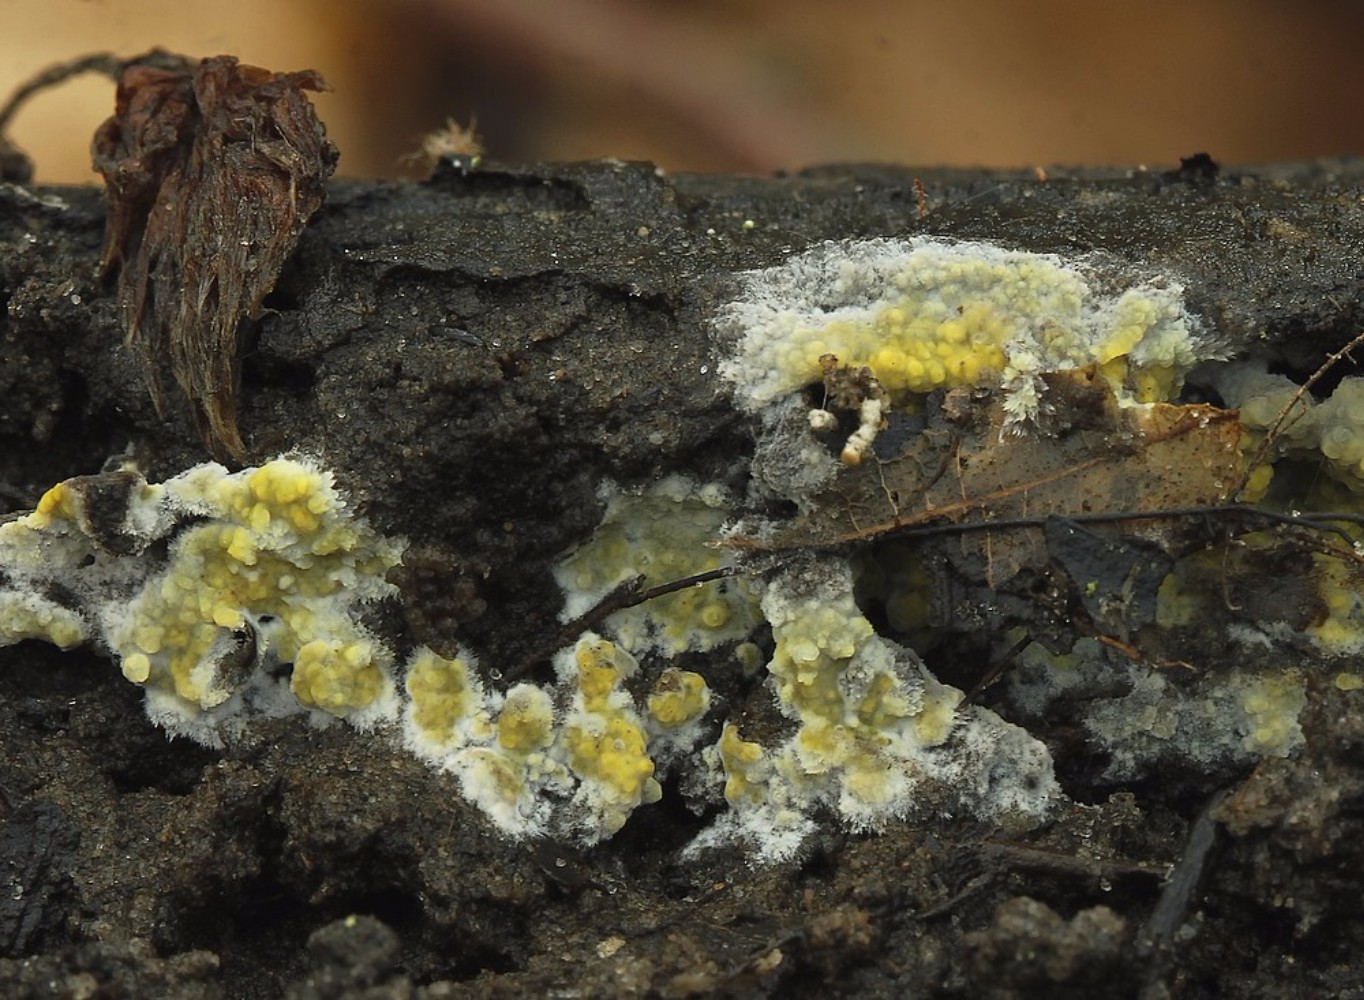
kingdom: Fungi
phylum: Basidiomycota
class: Agaricomycetes
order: Polyporales
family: Meruliaceae
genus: Phlebiodontia
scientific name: Phlebiodontia subochracea
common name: svovl-åresvamp
